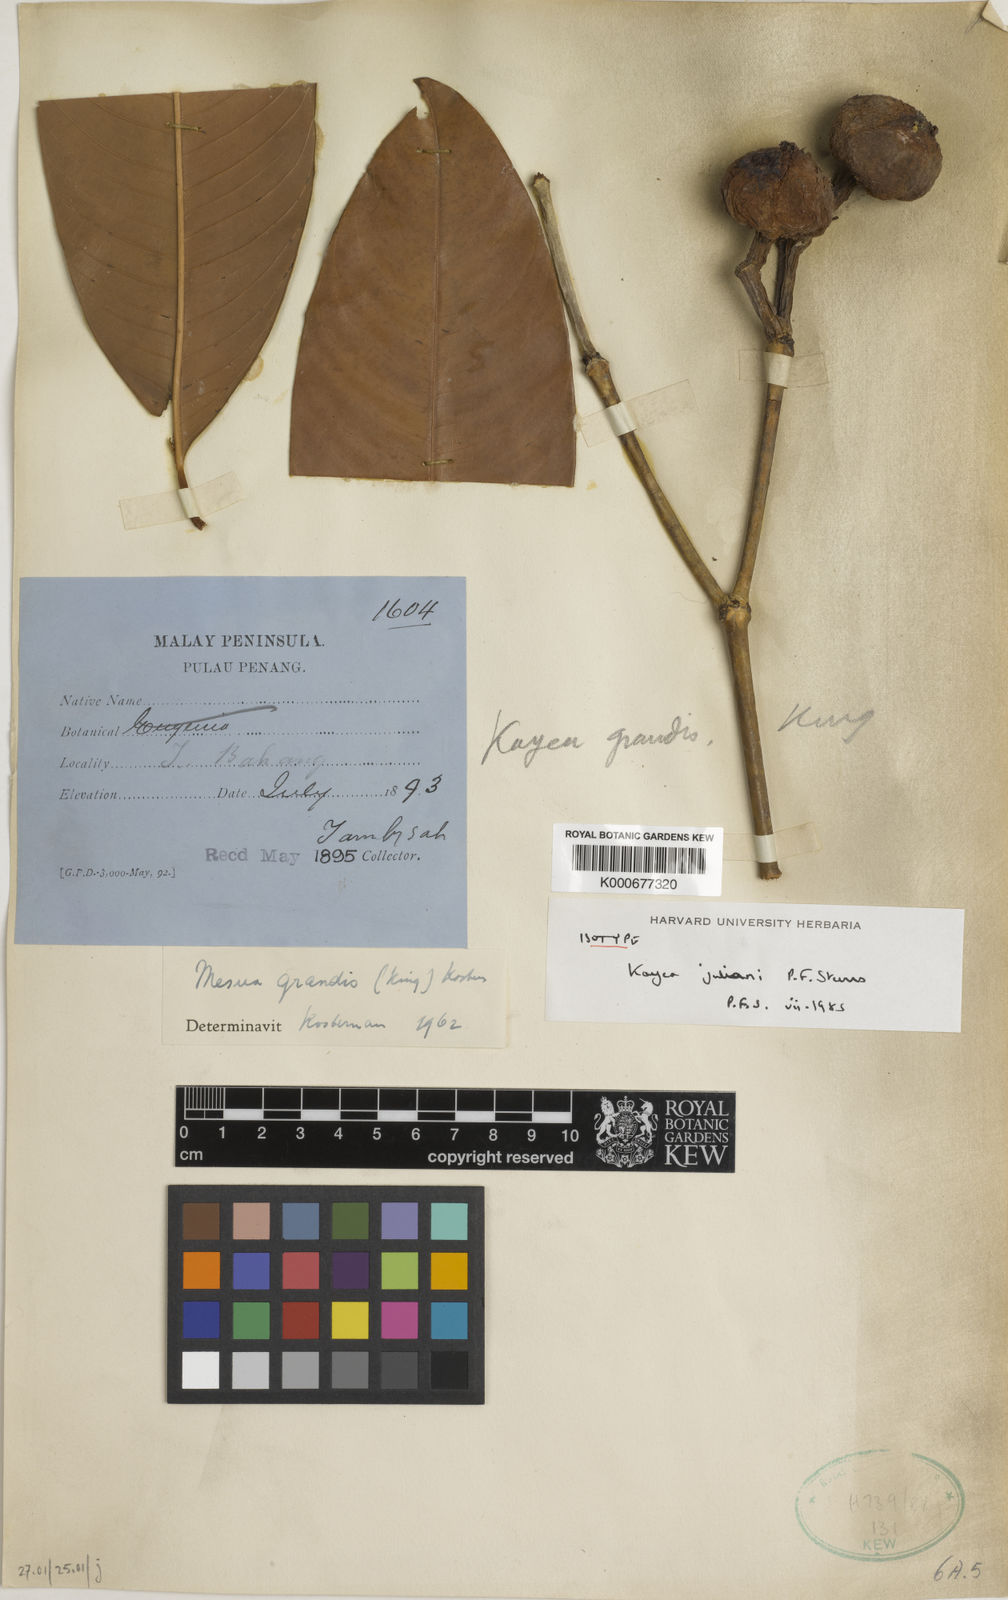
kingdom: Plantae
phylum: Tracheophyta
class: Magnoliopsida
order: Malpighiales
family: Calophyllaceae
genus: Kayea
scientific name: Kayea
